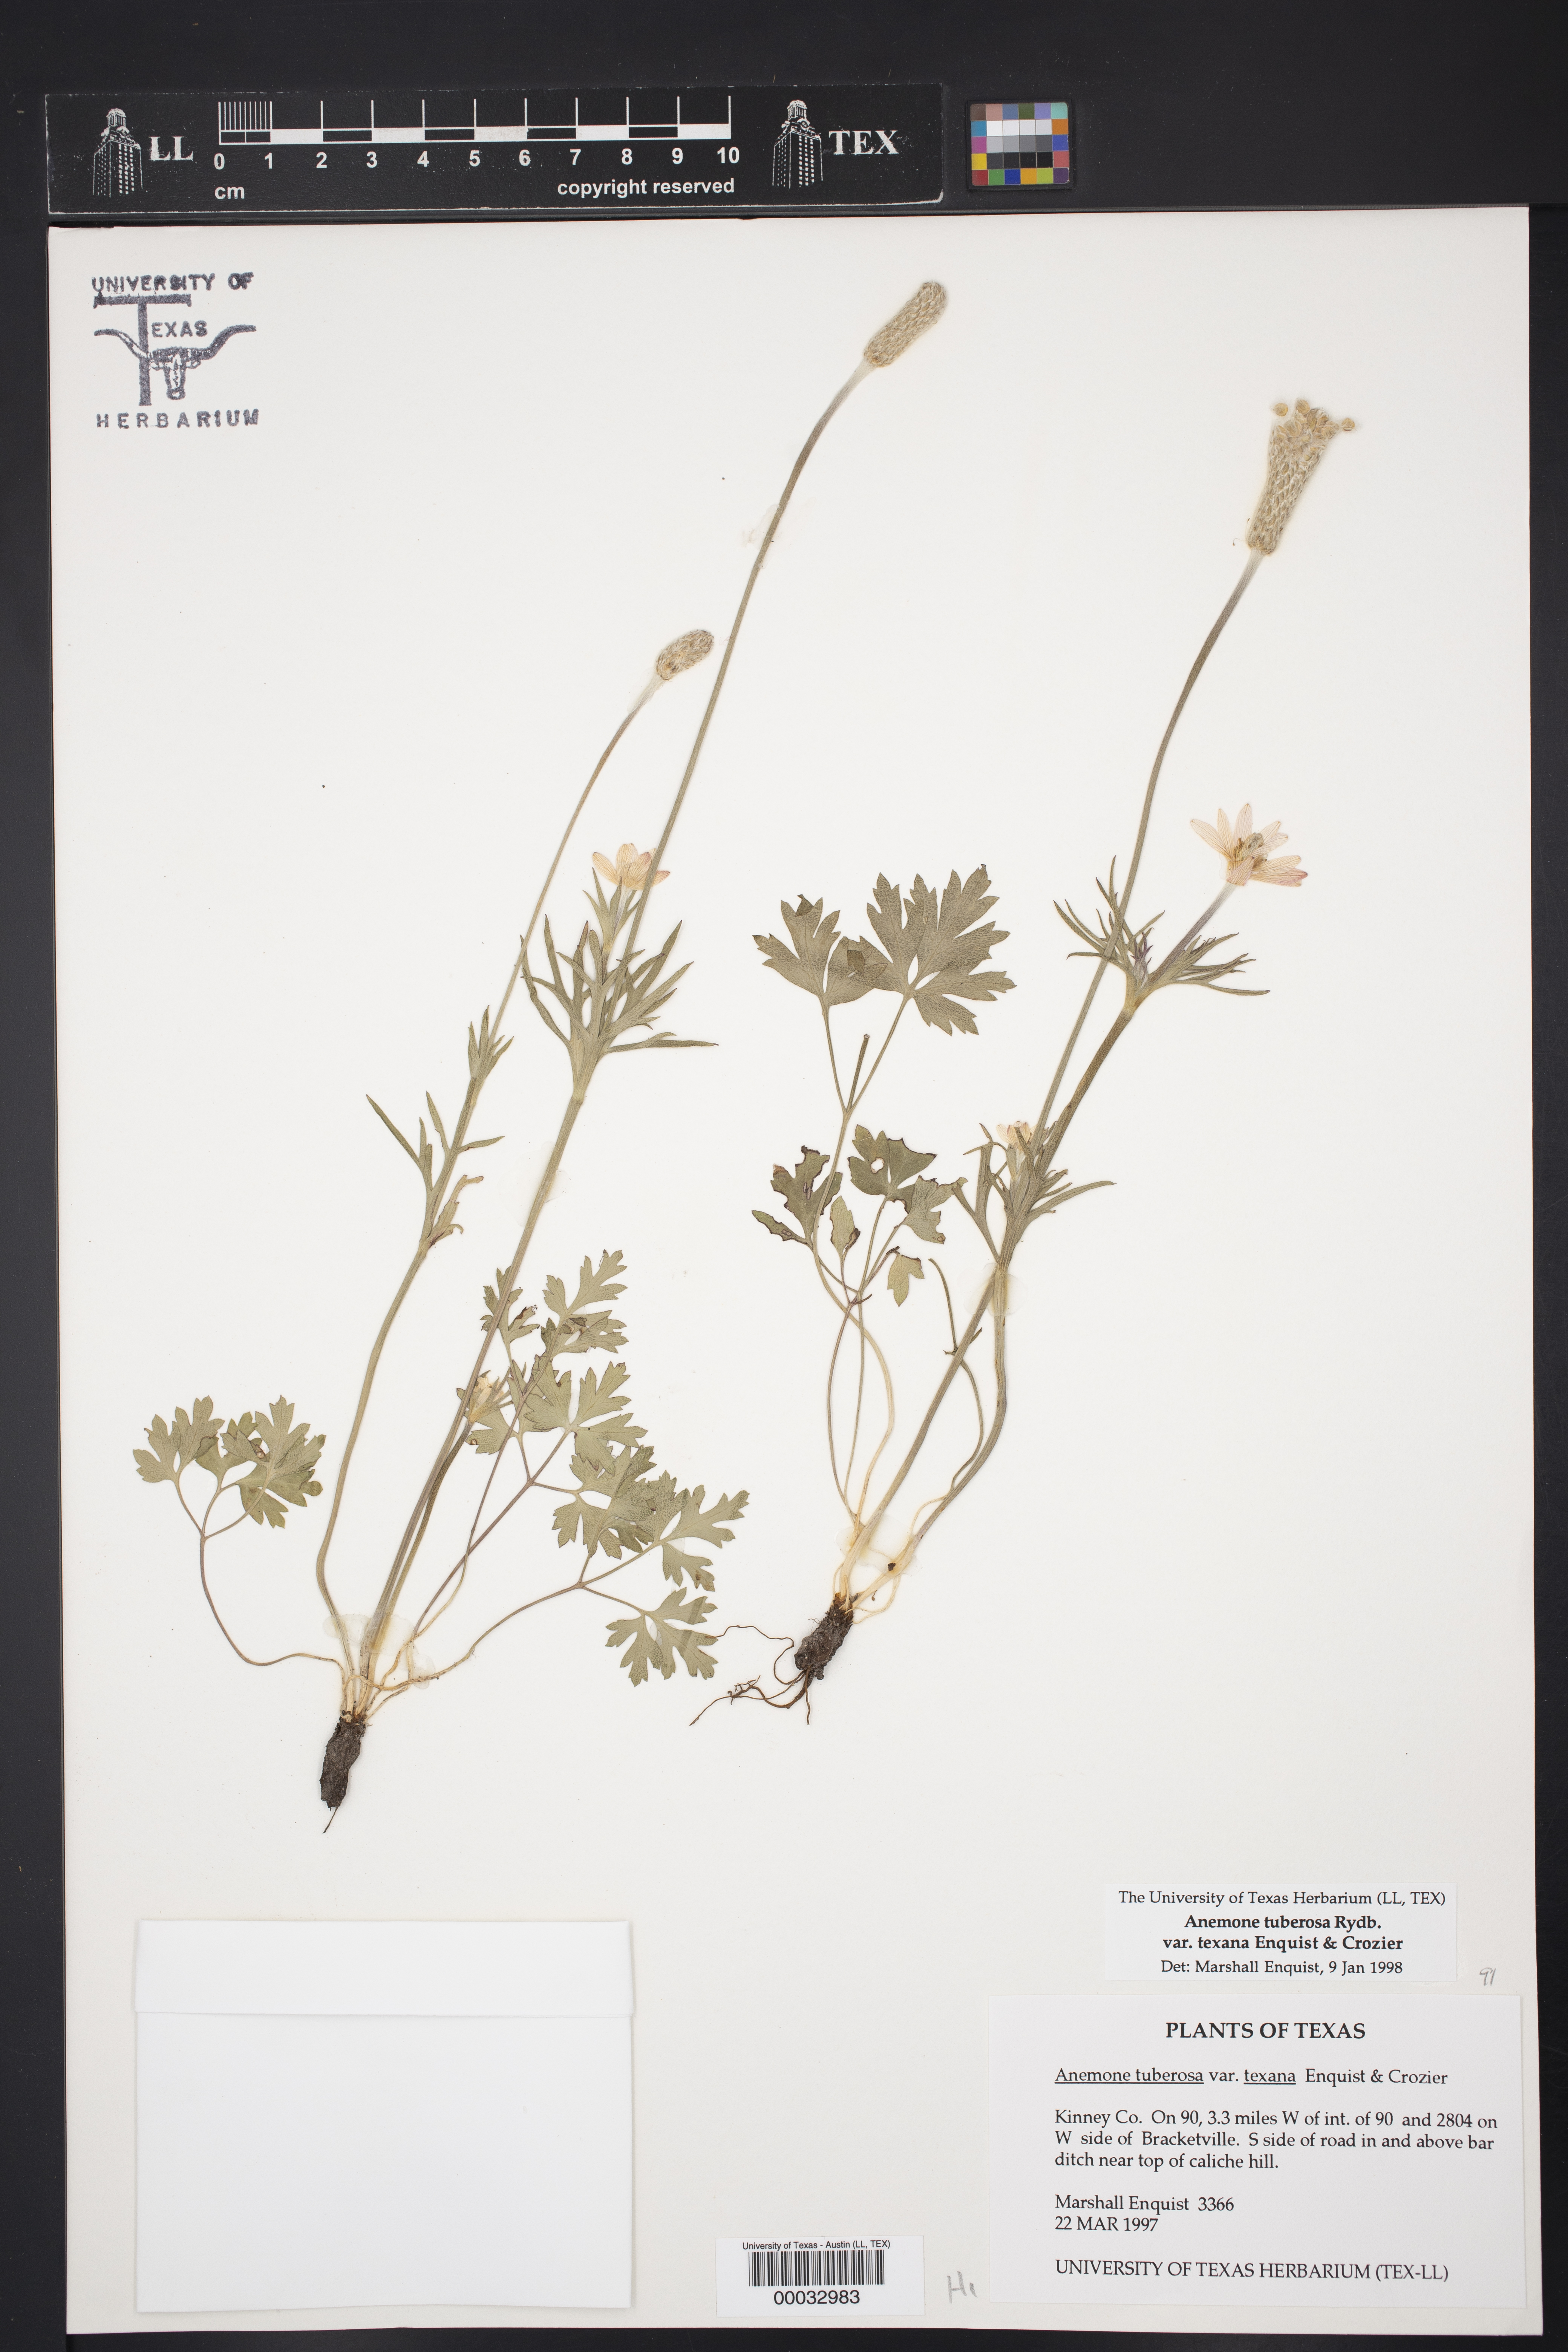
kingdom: Plantae
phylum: Tracheophyta
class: Magnoliopsida
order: Ranunculales
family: Ranunculaceae
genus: Anemone
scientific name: Anemone tuberosa
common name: Desert anemone
